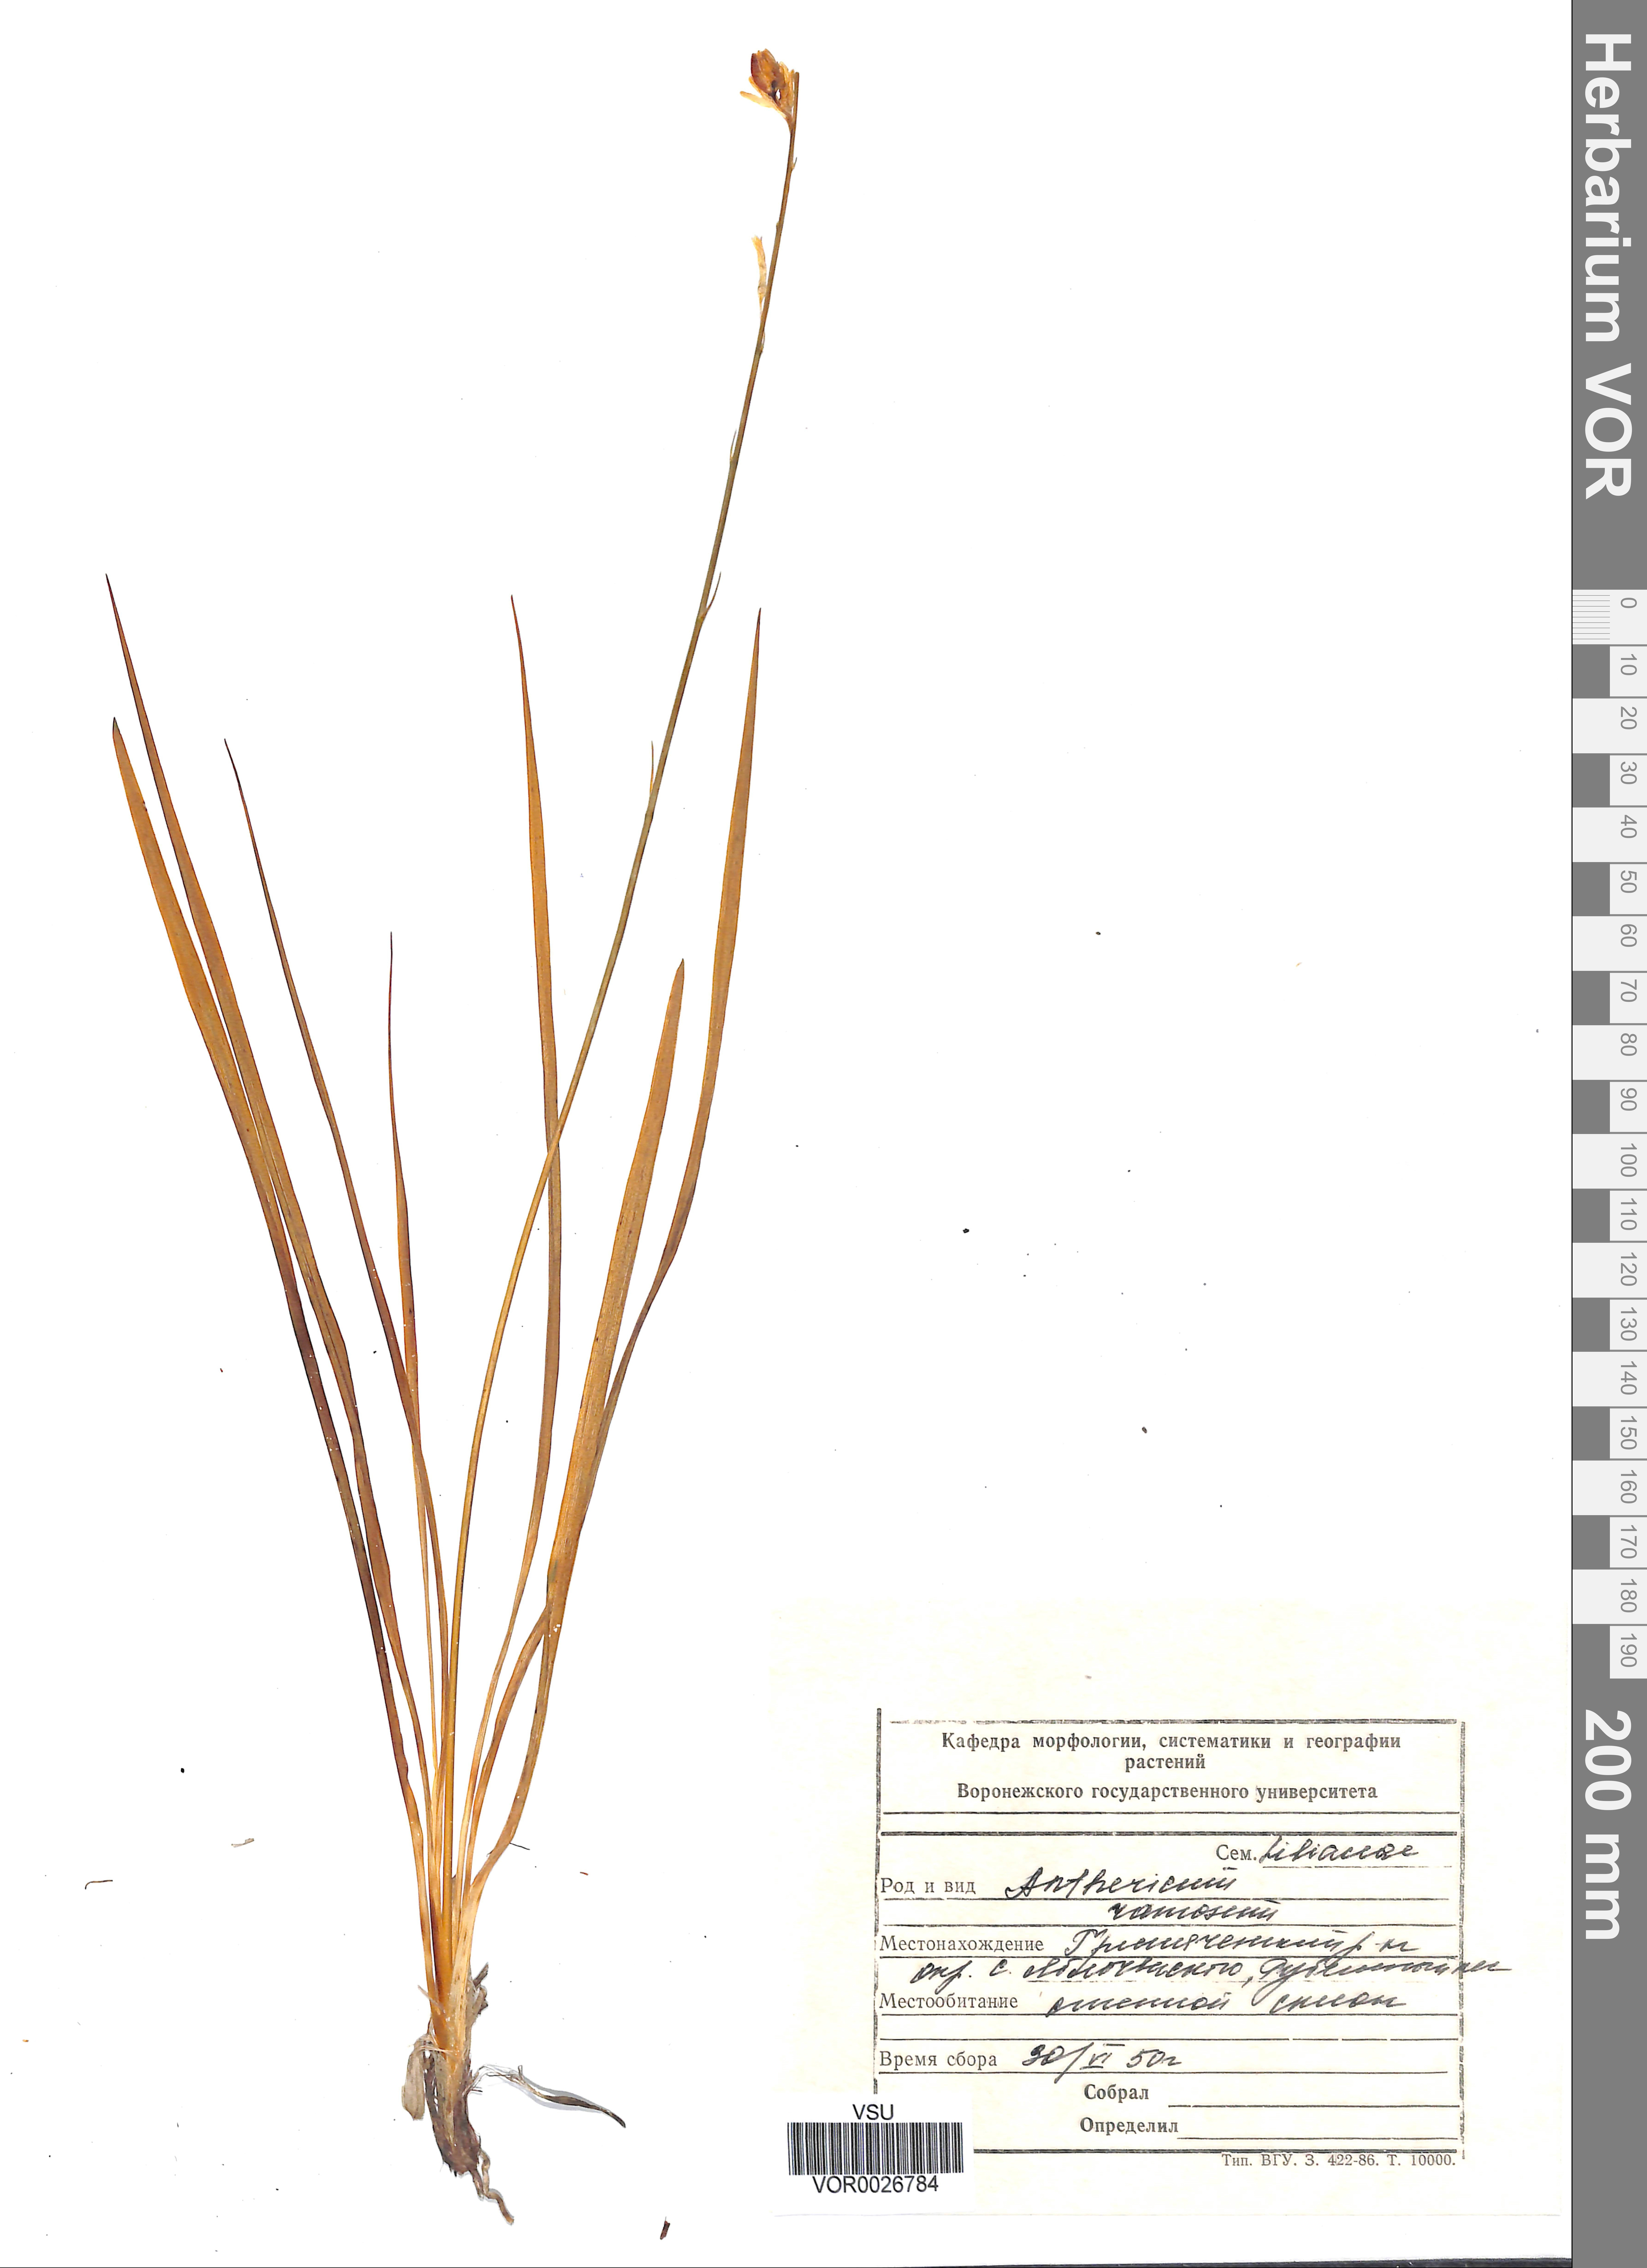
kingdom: Plantae
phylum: Tracheophyta
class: Liliopsida
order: Asparagales
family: Asparagaceae
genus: Anthericum
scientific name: Anthericum ramosum
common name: Branched st. bernard's-lily
